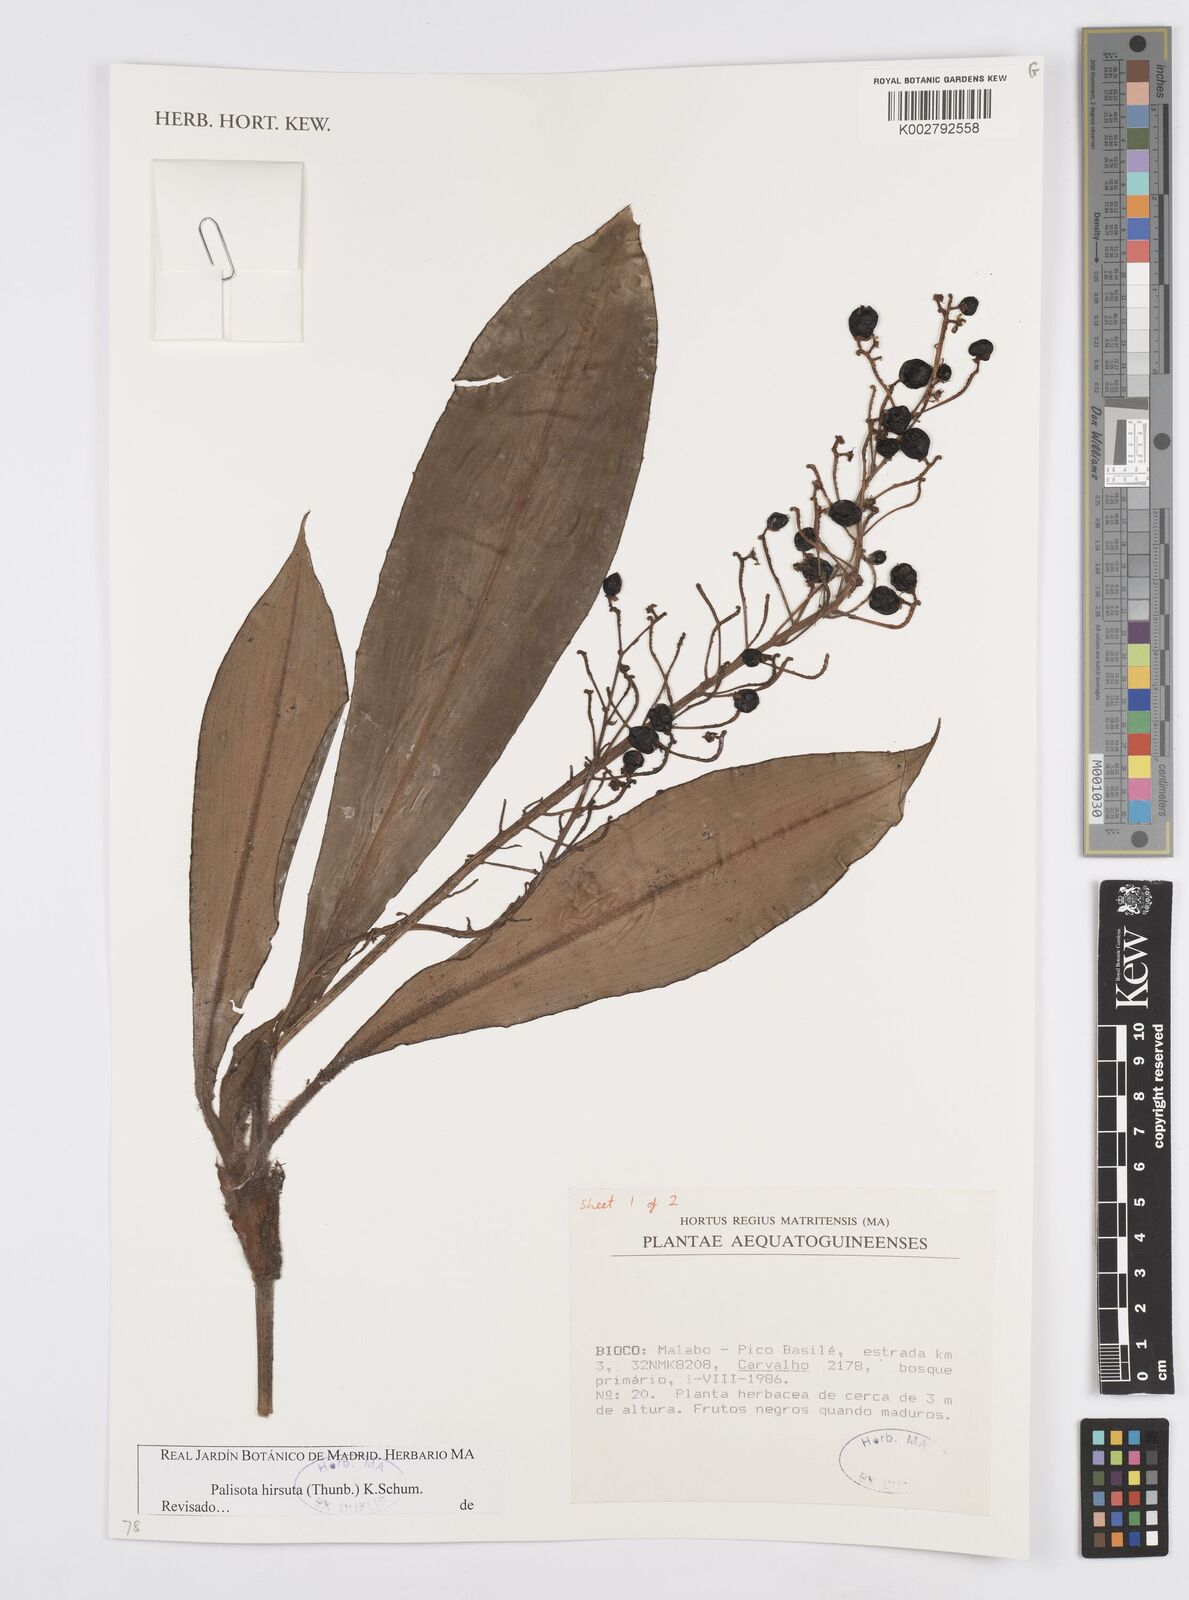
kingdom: Plantae
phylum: Tracheophyta
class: Liliopsida
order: Commelinales
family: Commelinaceae
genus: Palisota
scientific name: Palisota hirsuta
